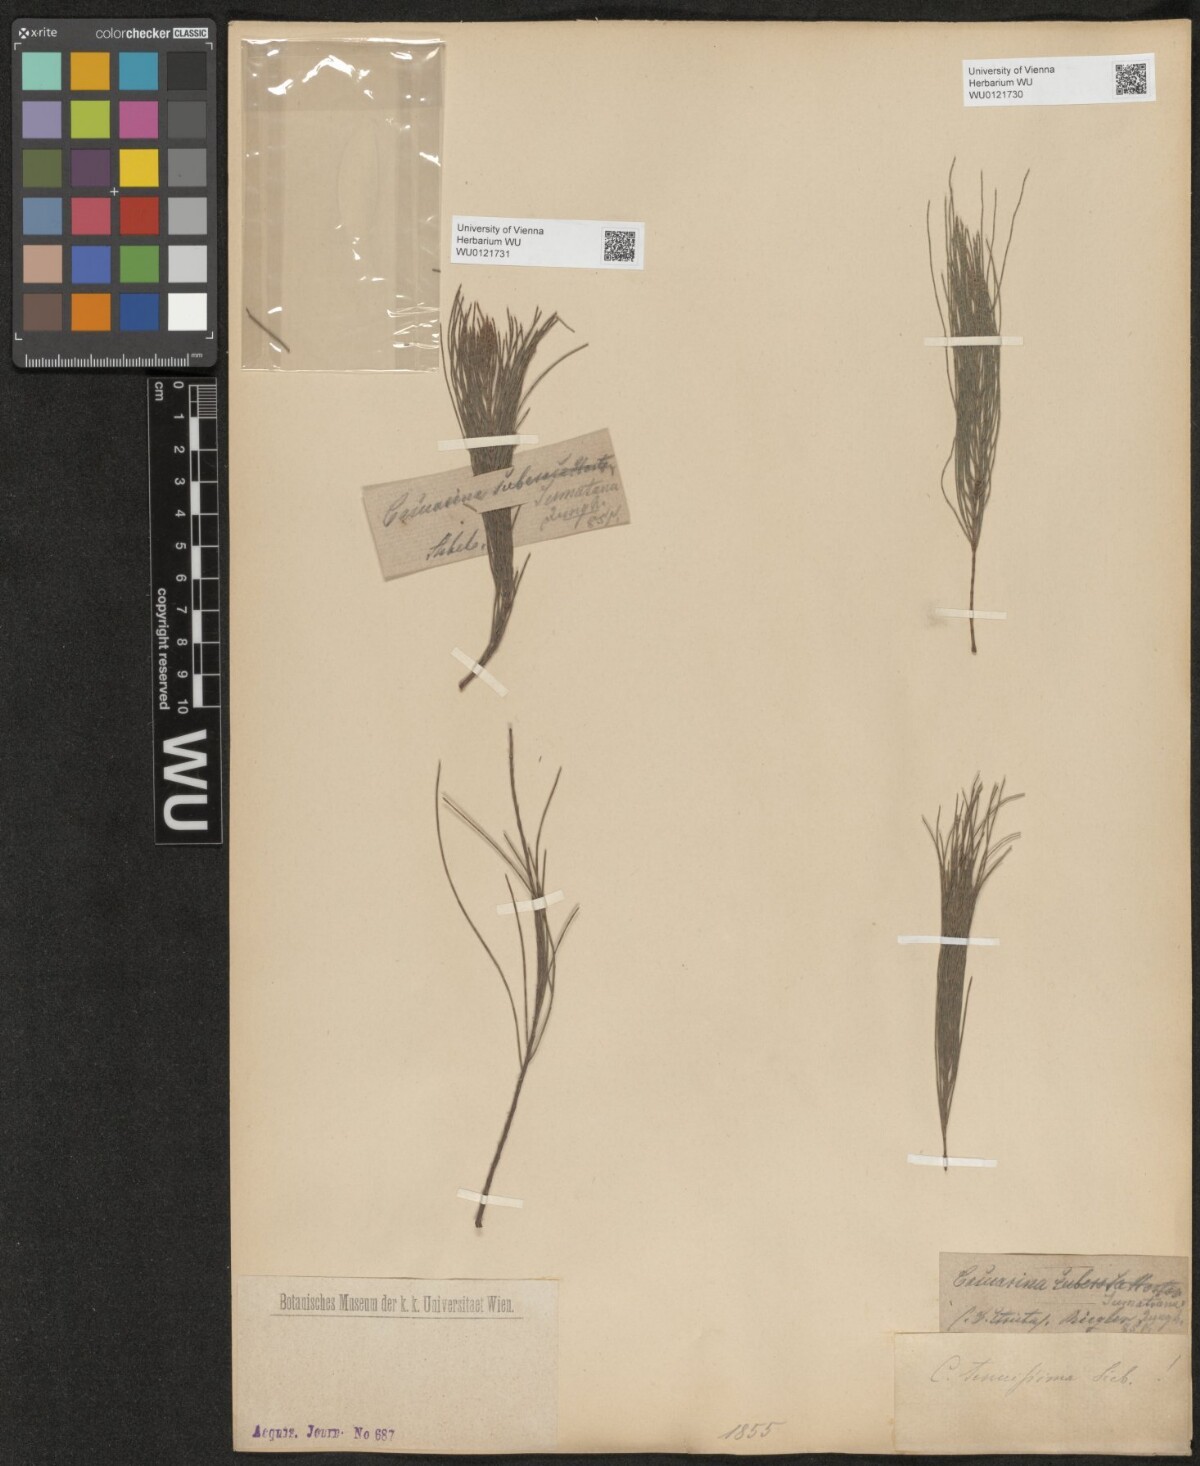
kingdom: Plantae
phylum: Tracheophyta
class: Magnoliopsida
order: Fagales
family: Casuarinaceae
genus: Allocasuarina
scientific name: Allocasuarina torulosa
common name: Forest-oak
